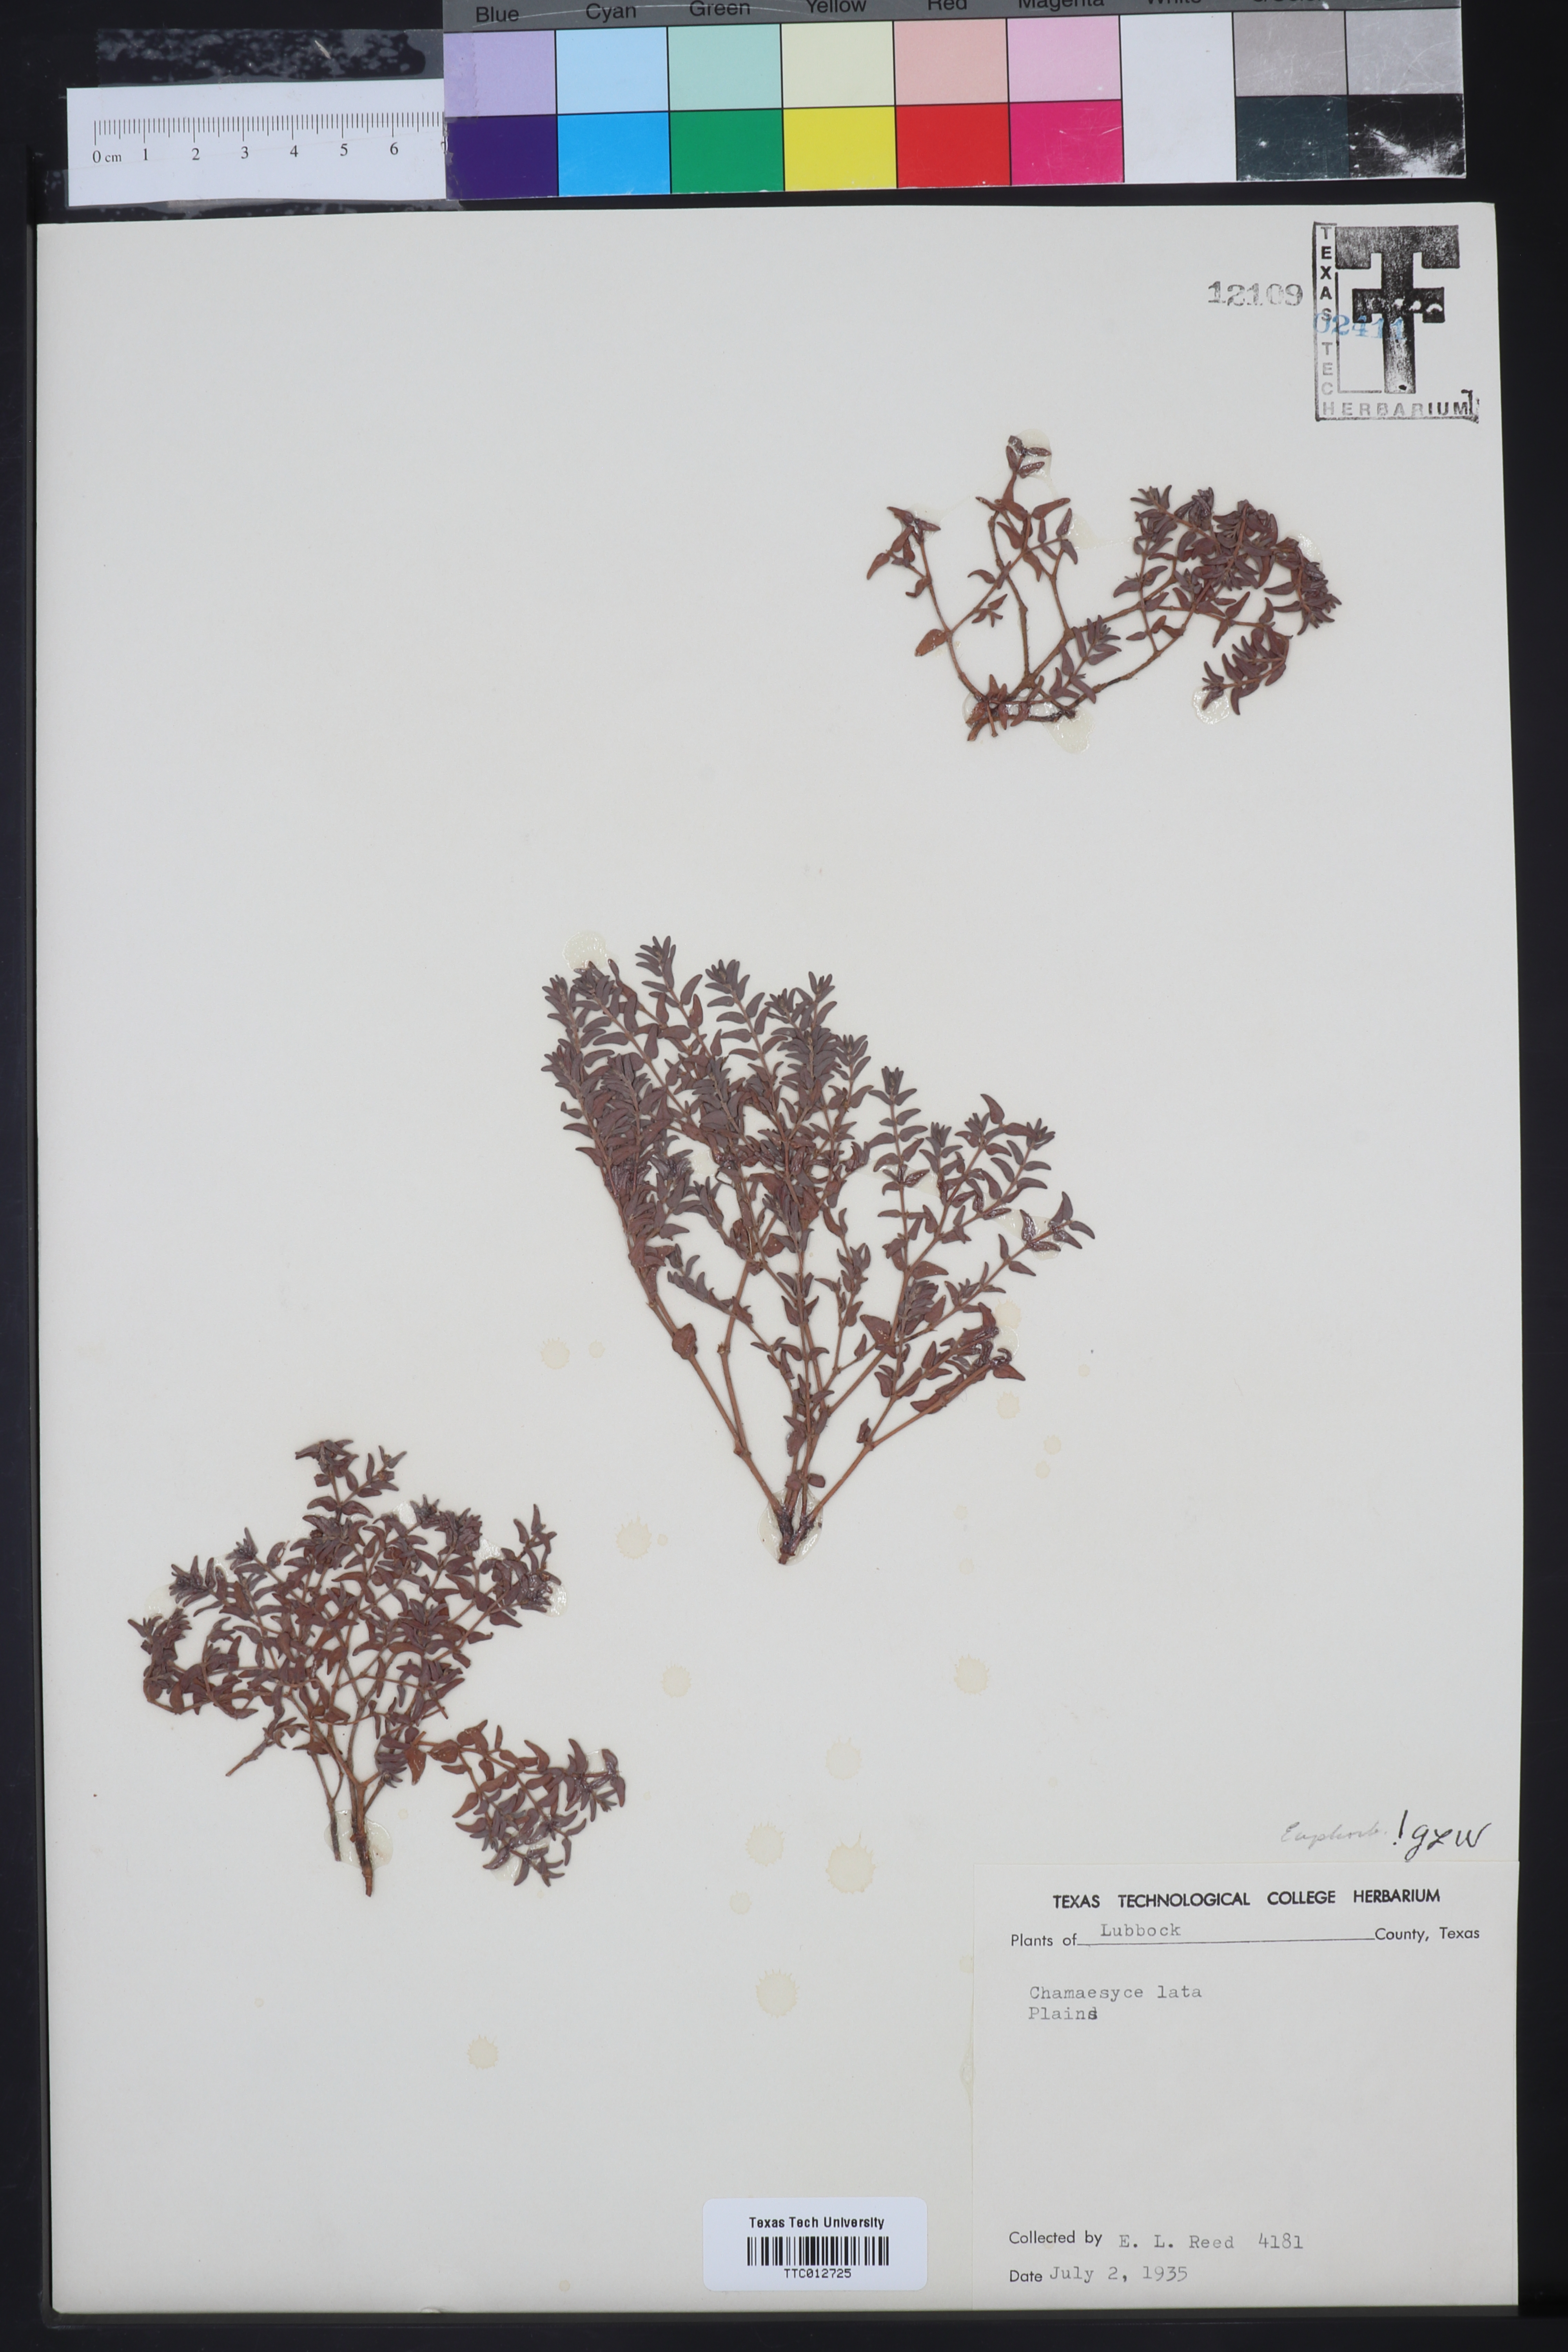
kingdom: Plantae
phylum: Tracheophyta
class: Magnoliopsida
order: Malpighiales
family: Euphorbiaceae
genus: Euphorbia
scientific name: Euphorbia lata
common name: Hoary euphorbia
